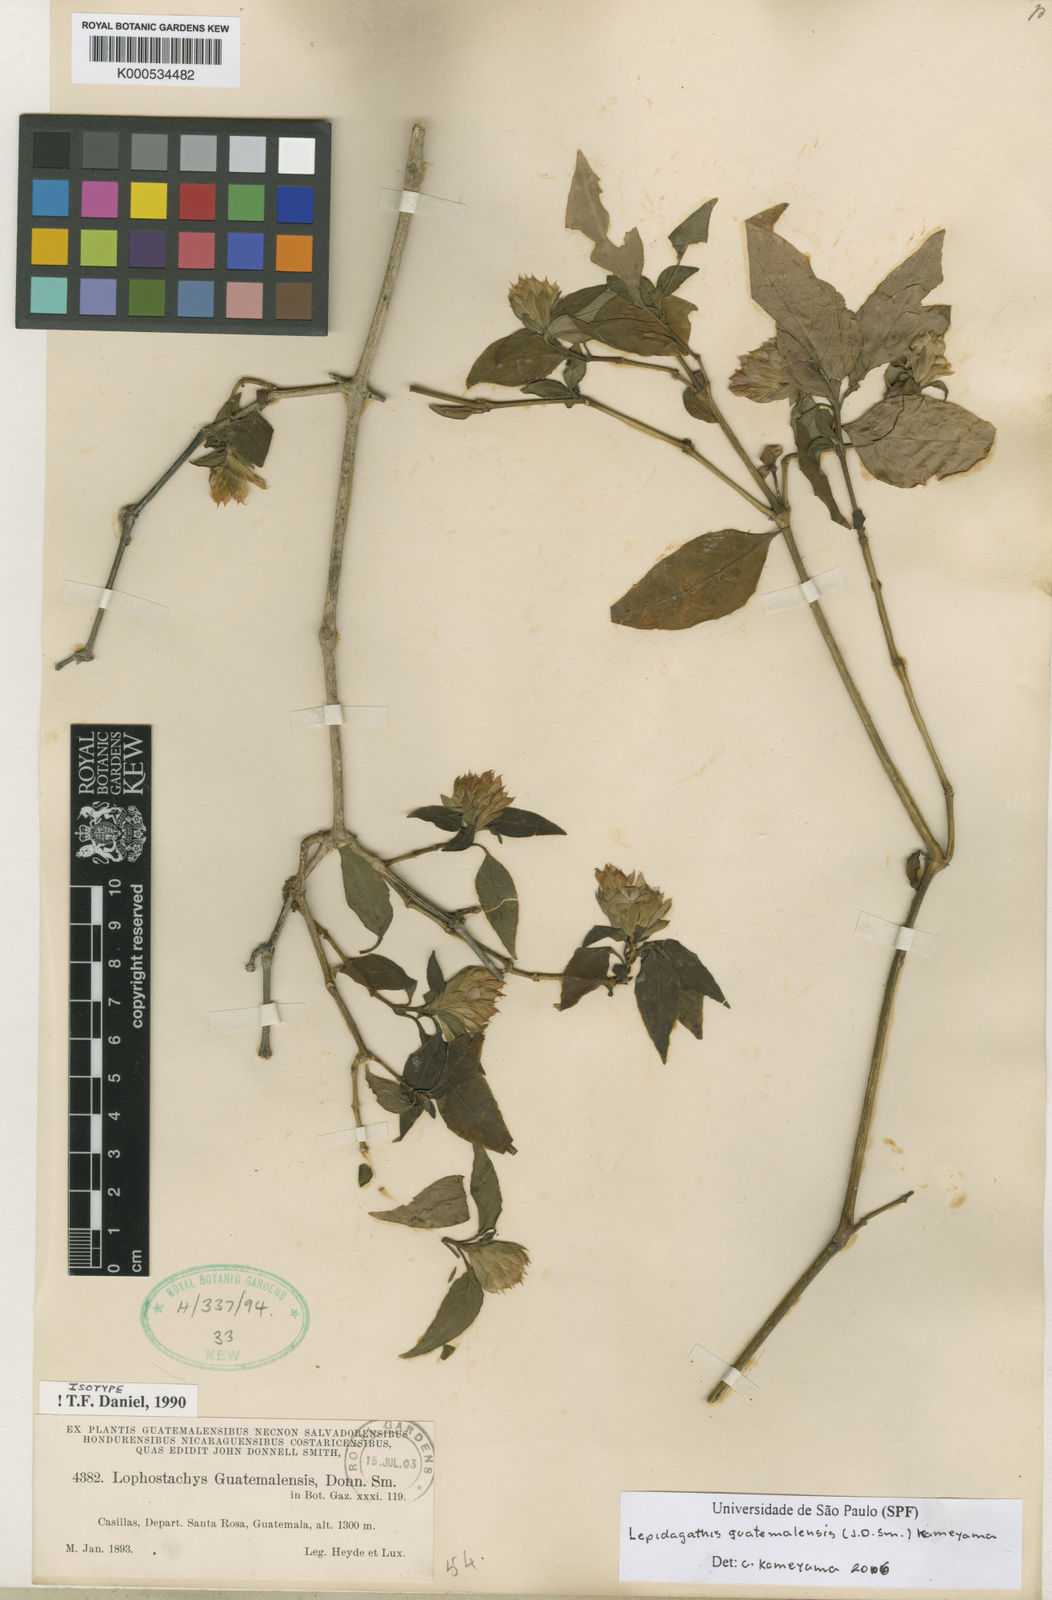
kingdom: Plantae
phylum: Tracheophyta
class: Magnoliopsida
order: Lamiales
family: Acanthaceae
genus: Lepidagathis
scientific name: Lepidagathis guatemalensis
